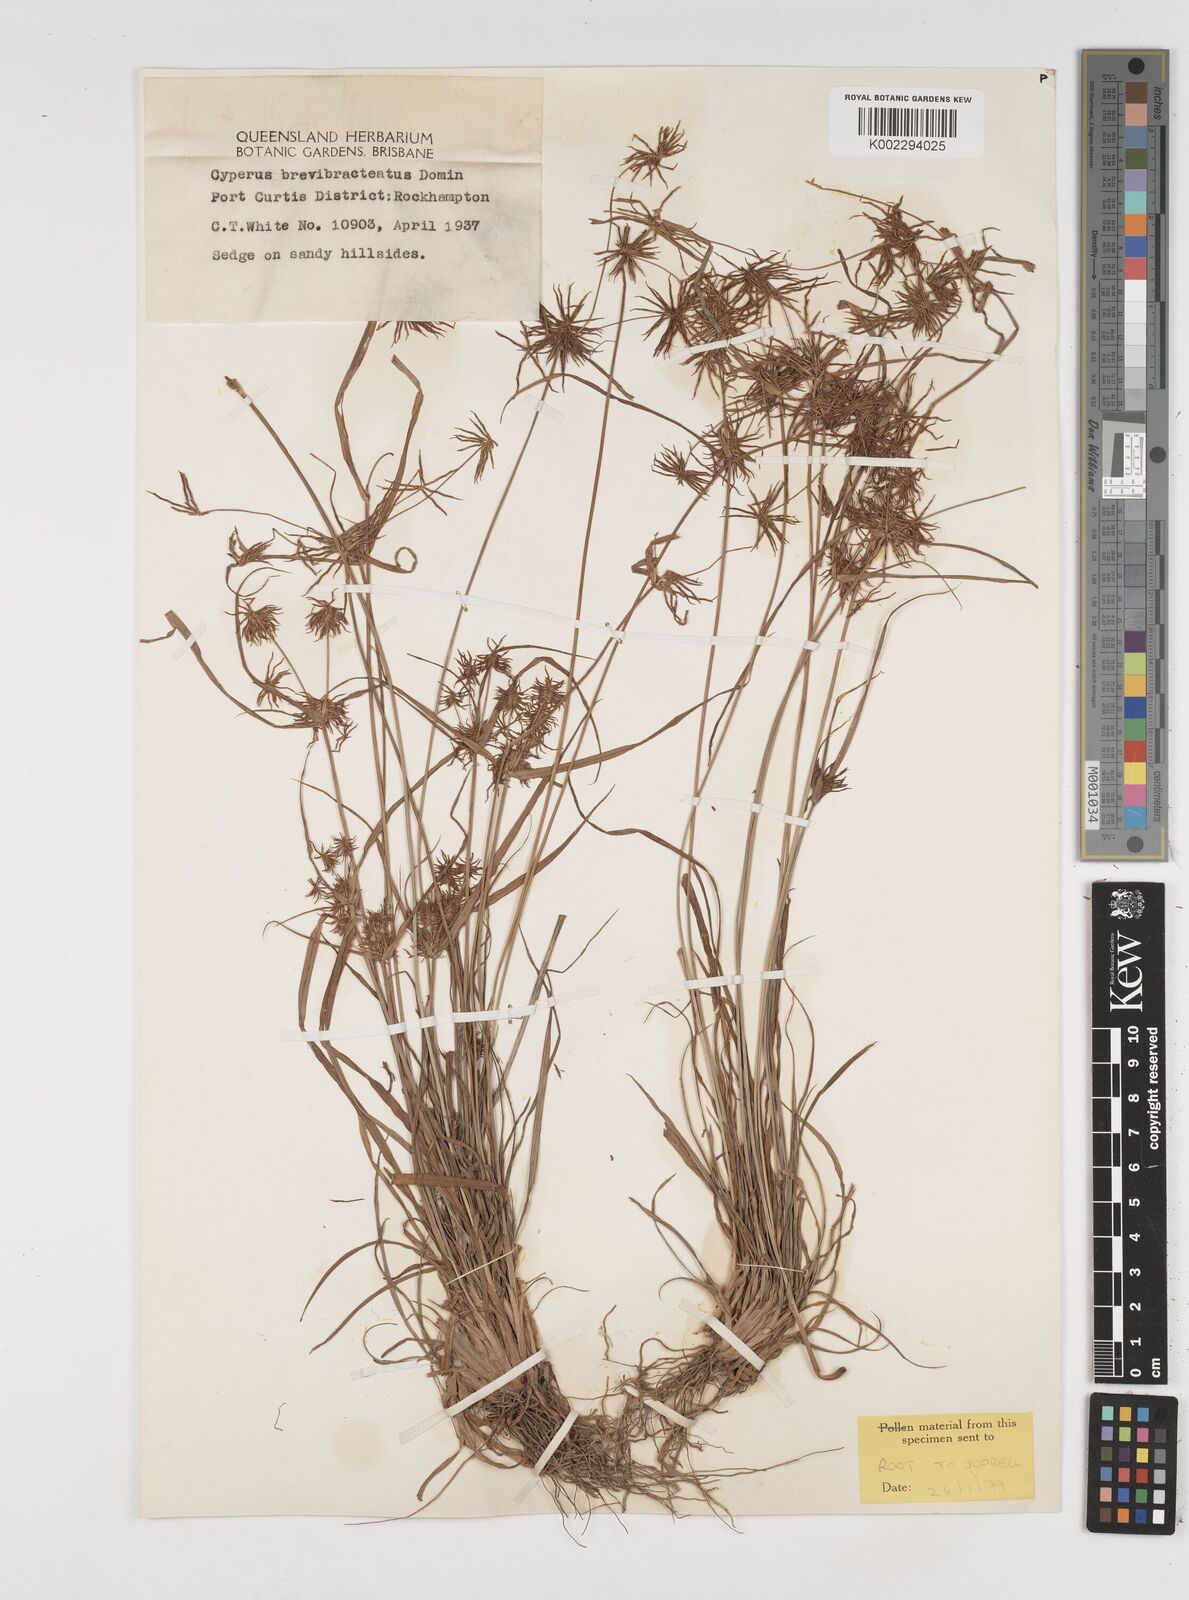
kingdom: Plantae
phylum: Tracheophyta
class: Liliopsida
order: Poales
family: Cyperaceae
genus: Cyperus
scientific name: Cyperus dietrichiae
